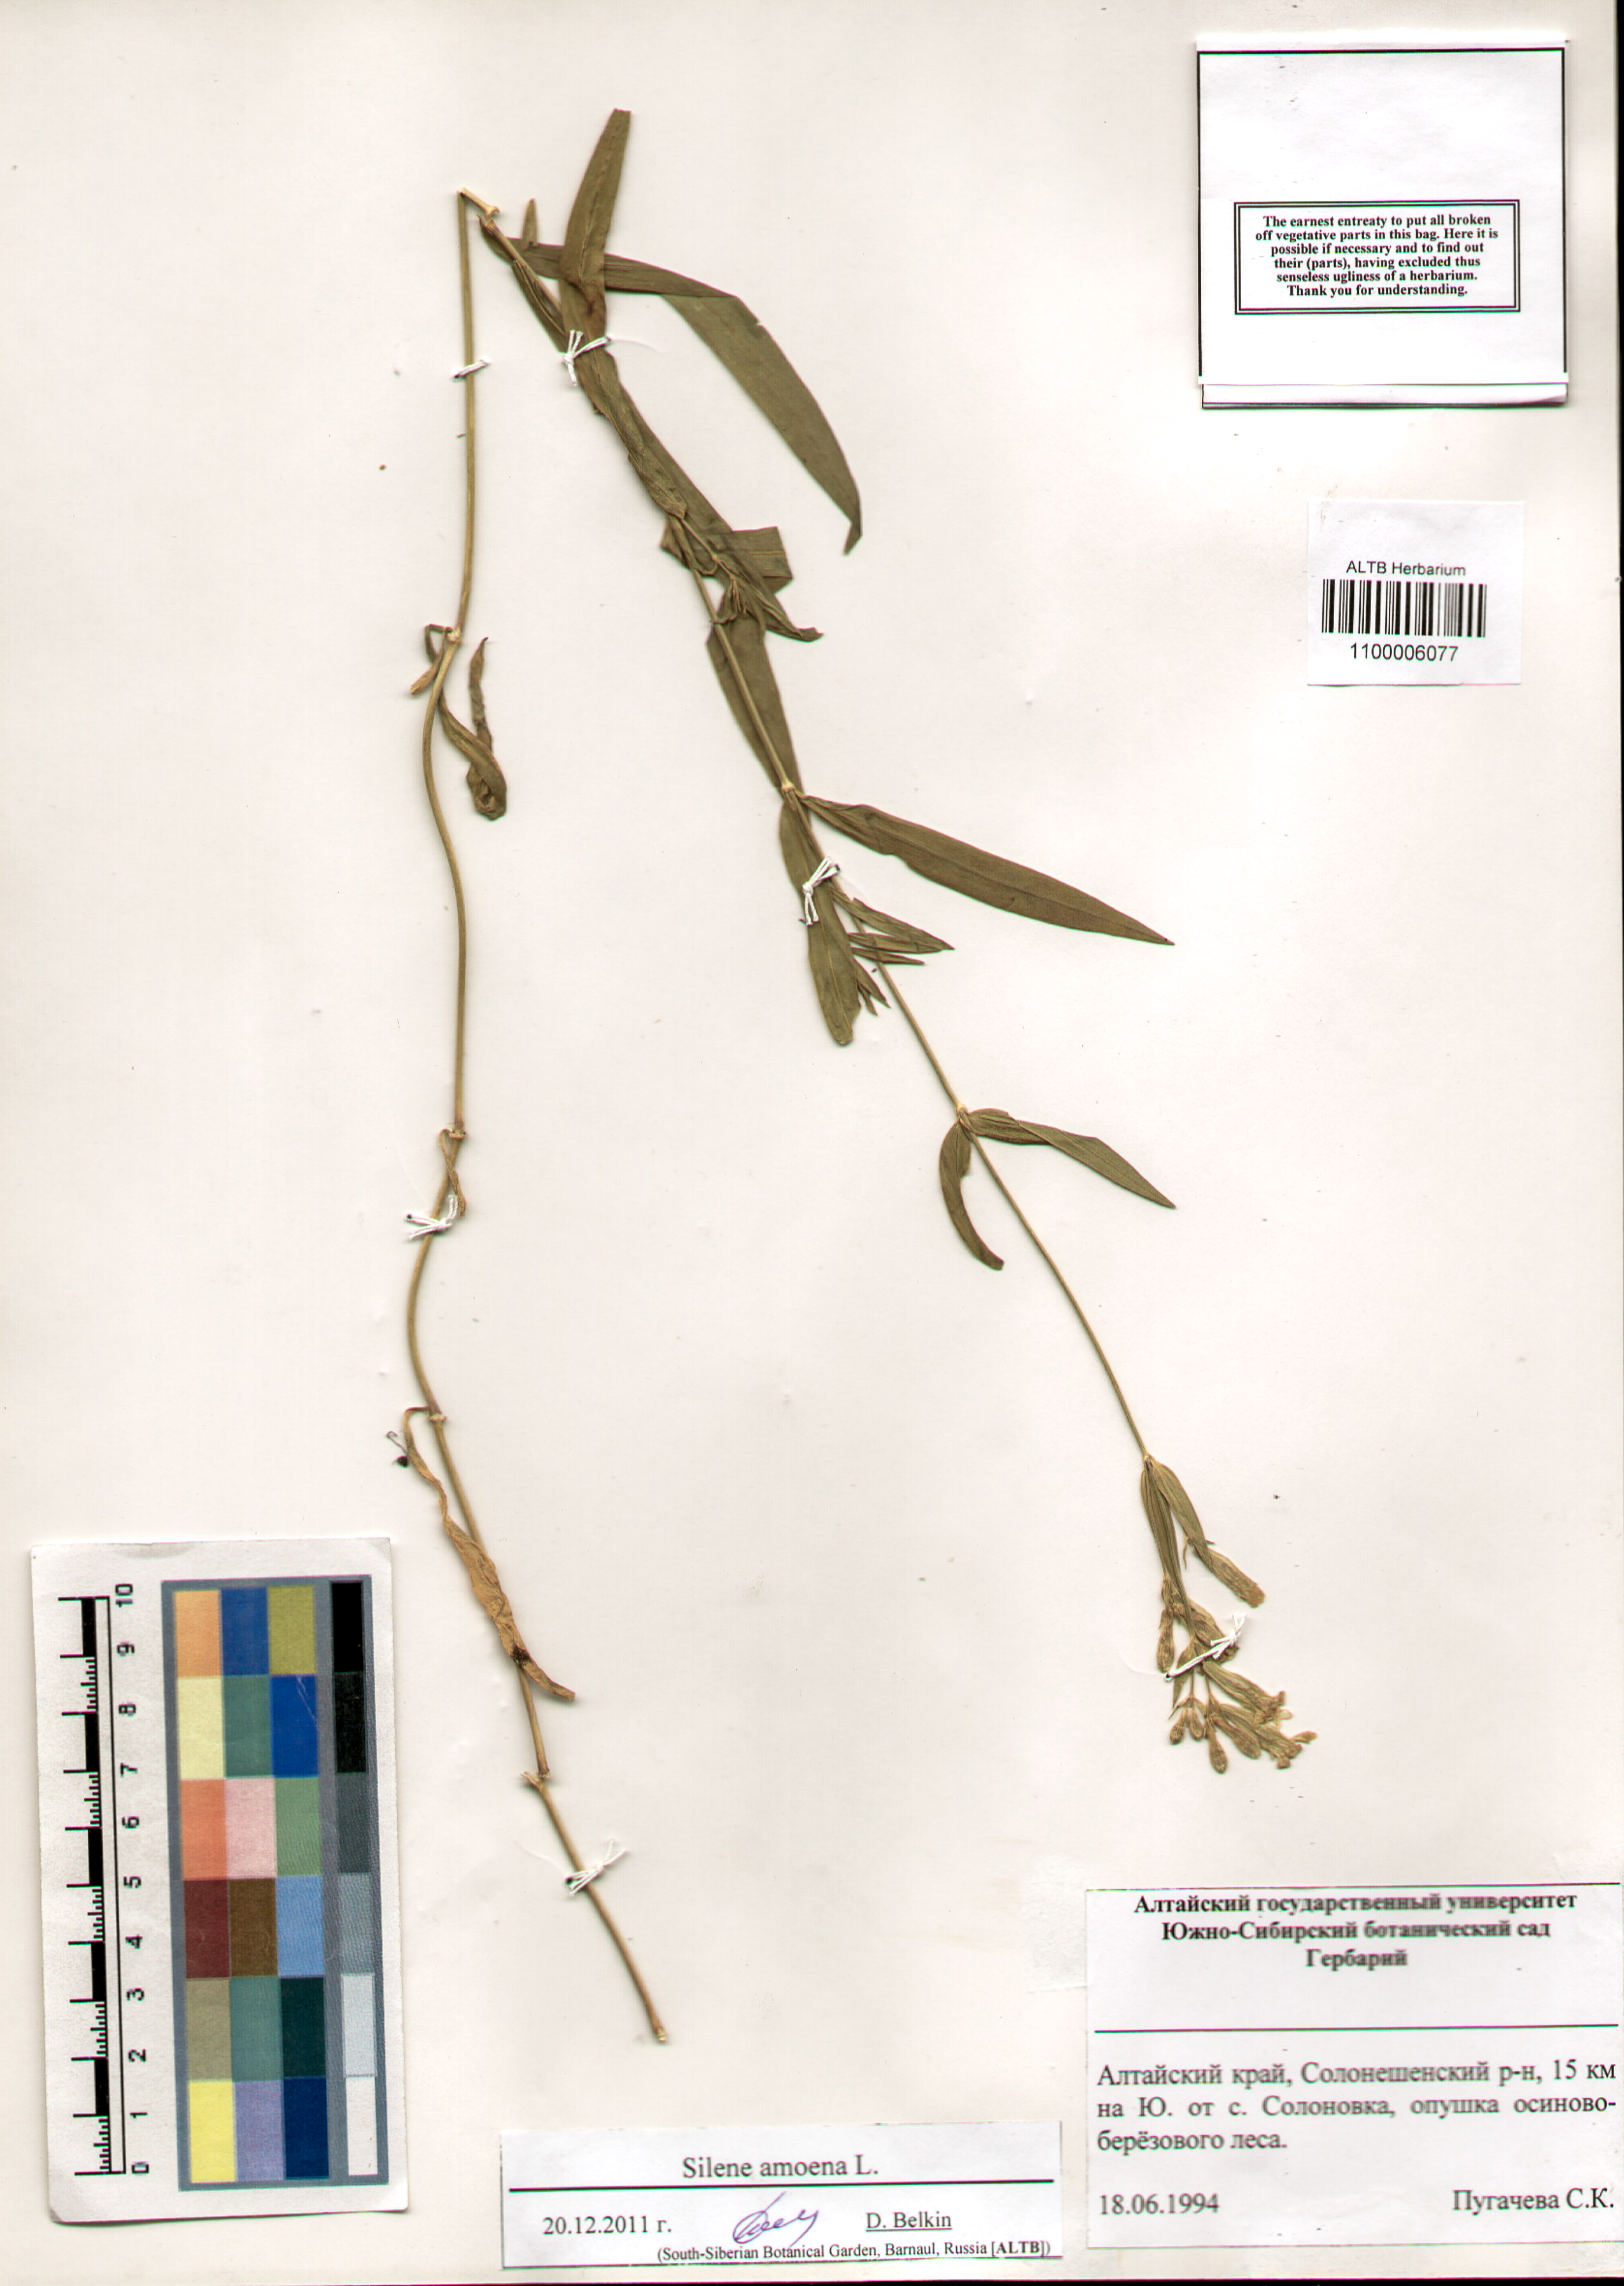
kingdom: Plantae
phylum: Tracheophyta
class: Magnoliopsida
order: Caryophyllales
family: Caryophyllaceae
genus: Silene
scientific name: Silene amoena
